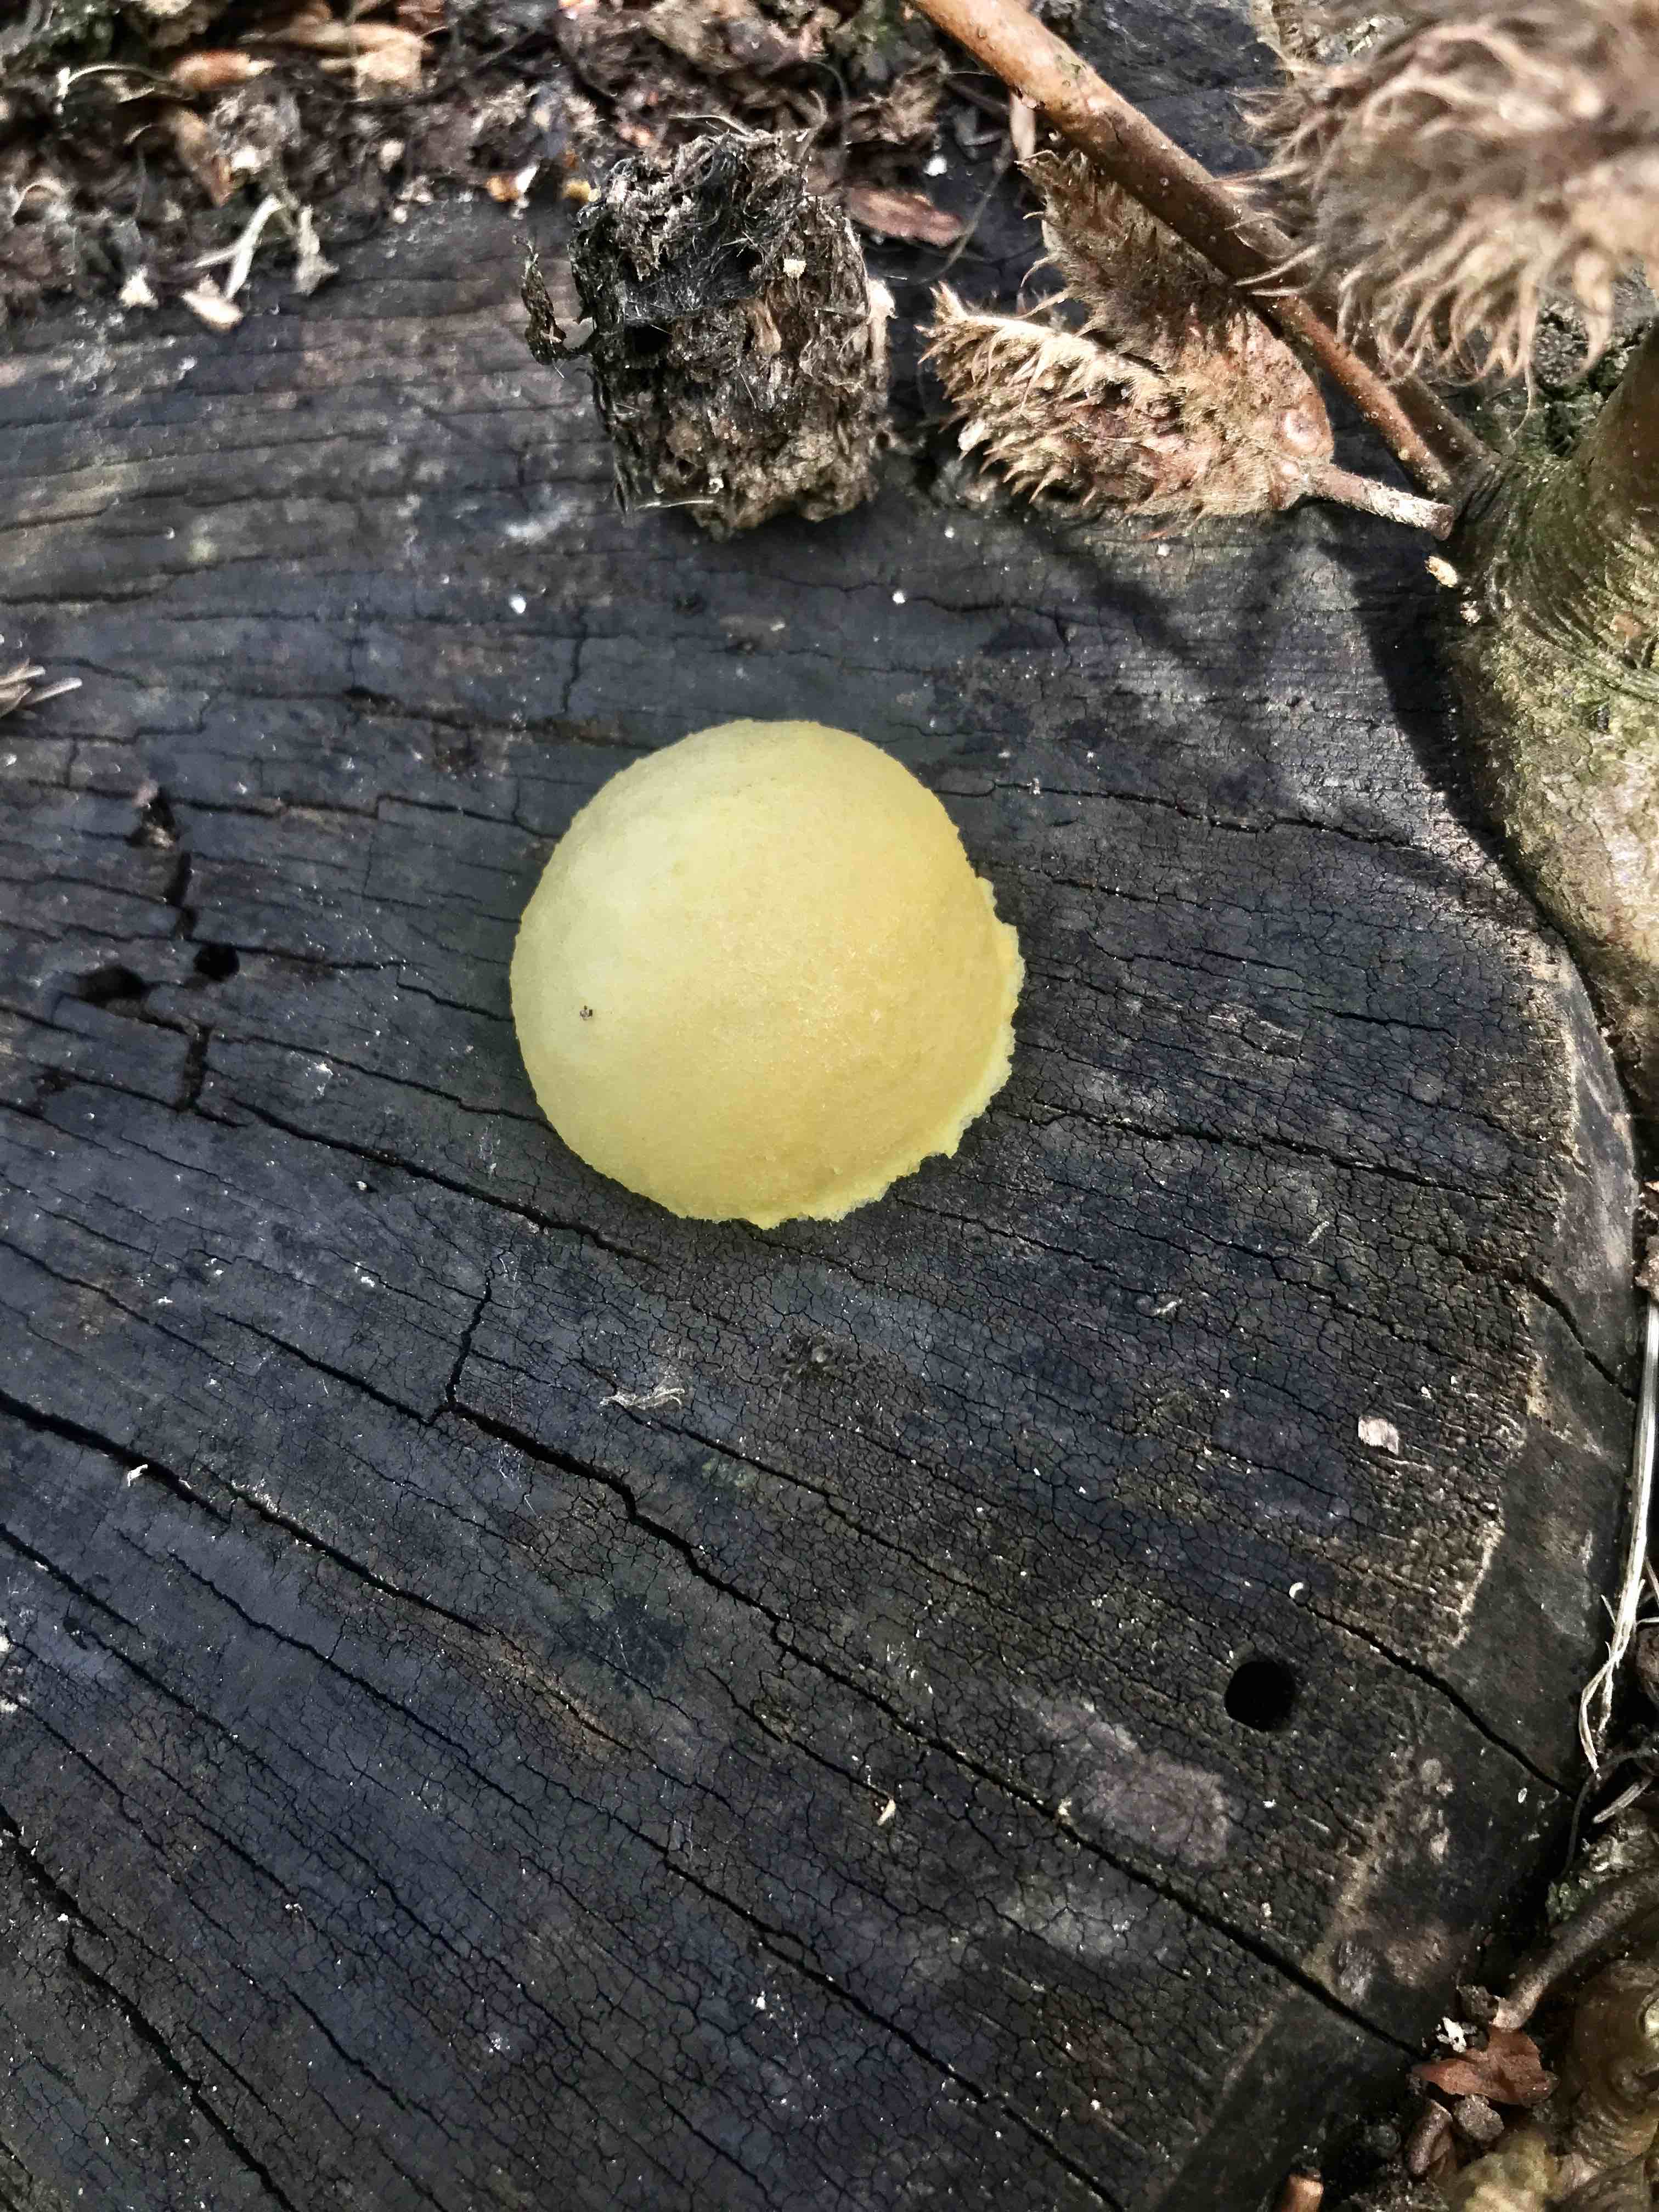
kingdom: Protozoa
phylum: Mycetozoa
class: Myxomycetes
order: Cribrariales
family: Tubiferaceae
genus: Reticularia
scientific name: Reticularia lycoperdon
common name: skinnende støvpude
